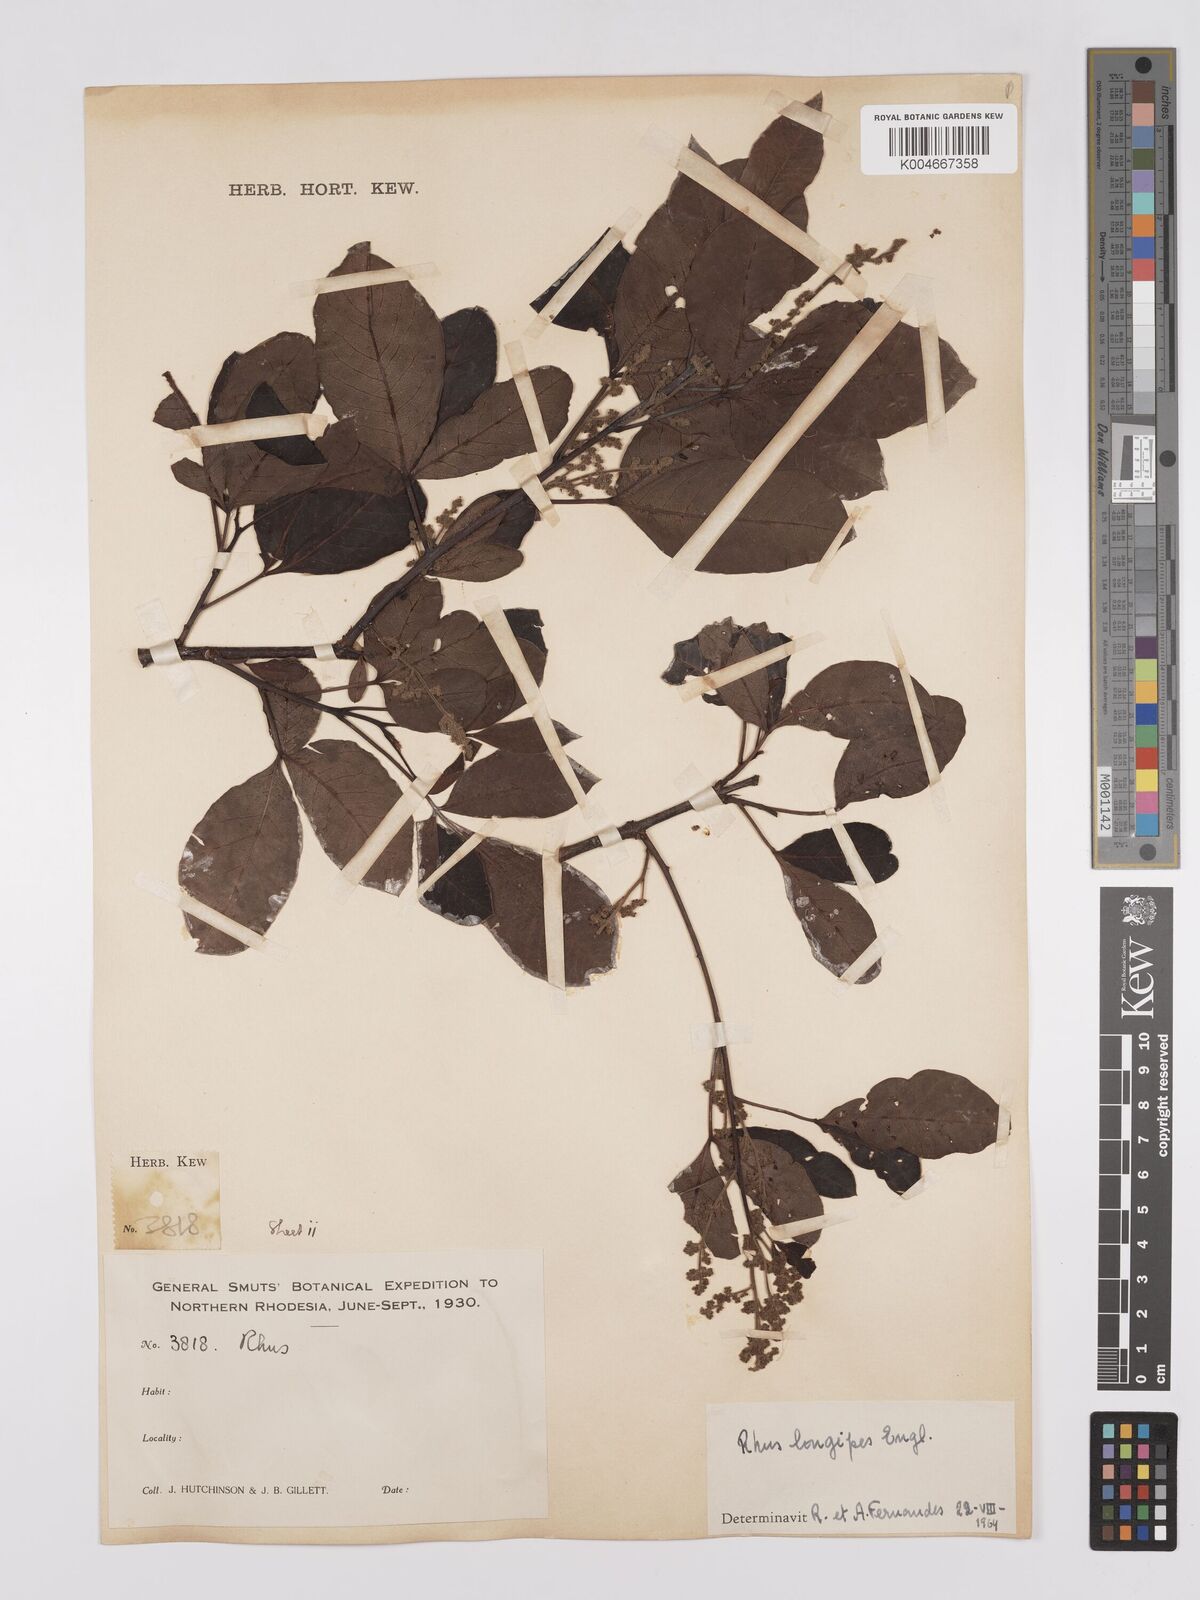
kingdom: Plantae
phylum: Tracheophyta
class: Magnoliopsida
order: Sapindales
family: Anacardiaceae
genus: Searsia
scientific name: Searsia longipes
